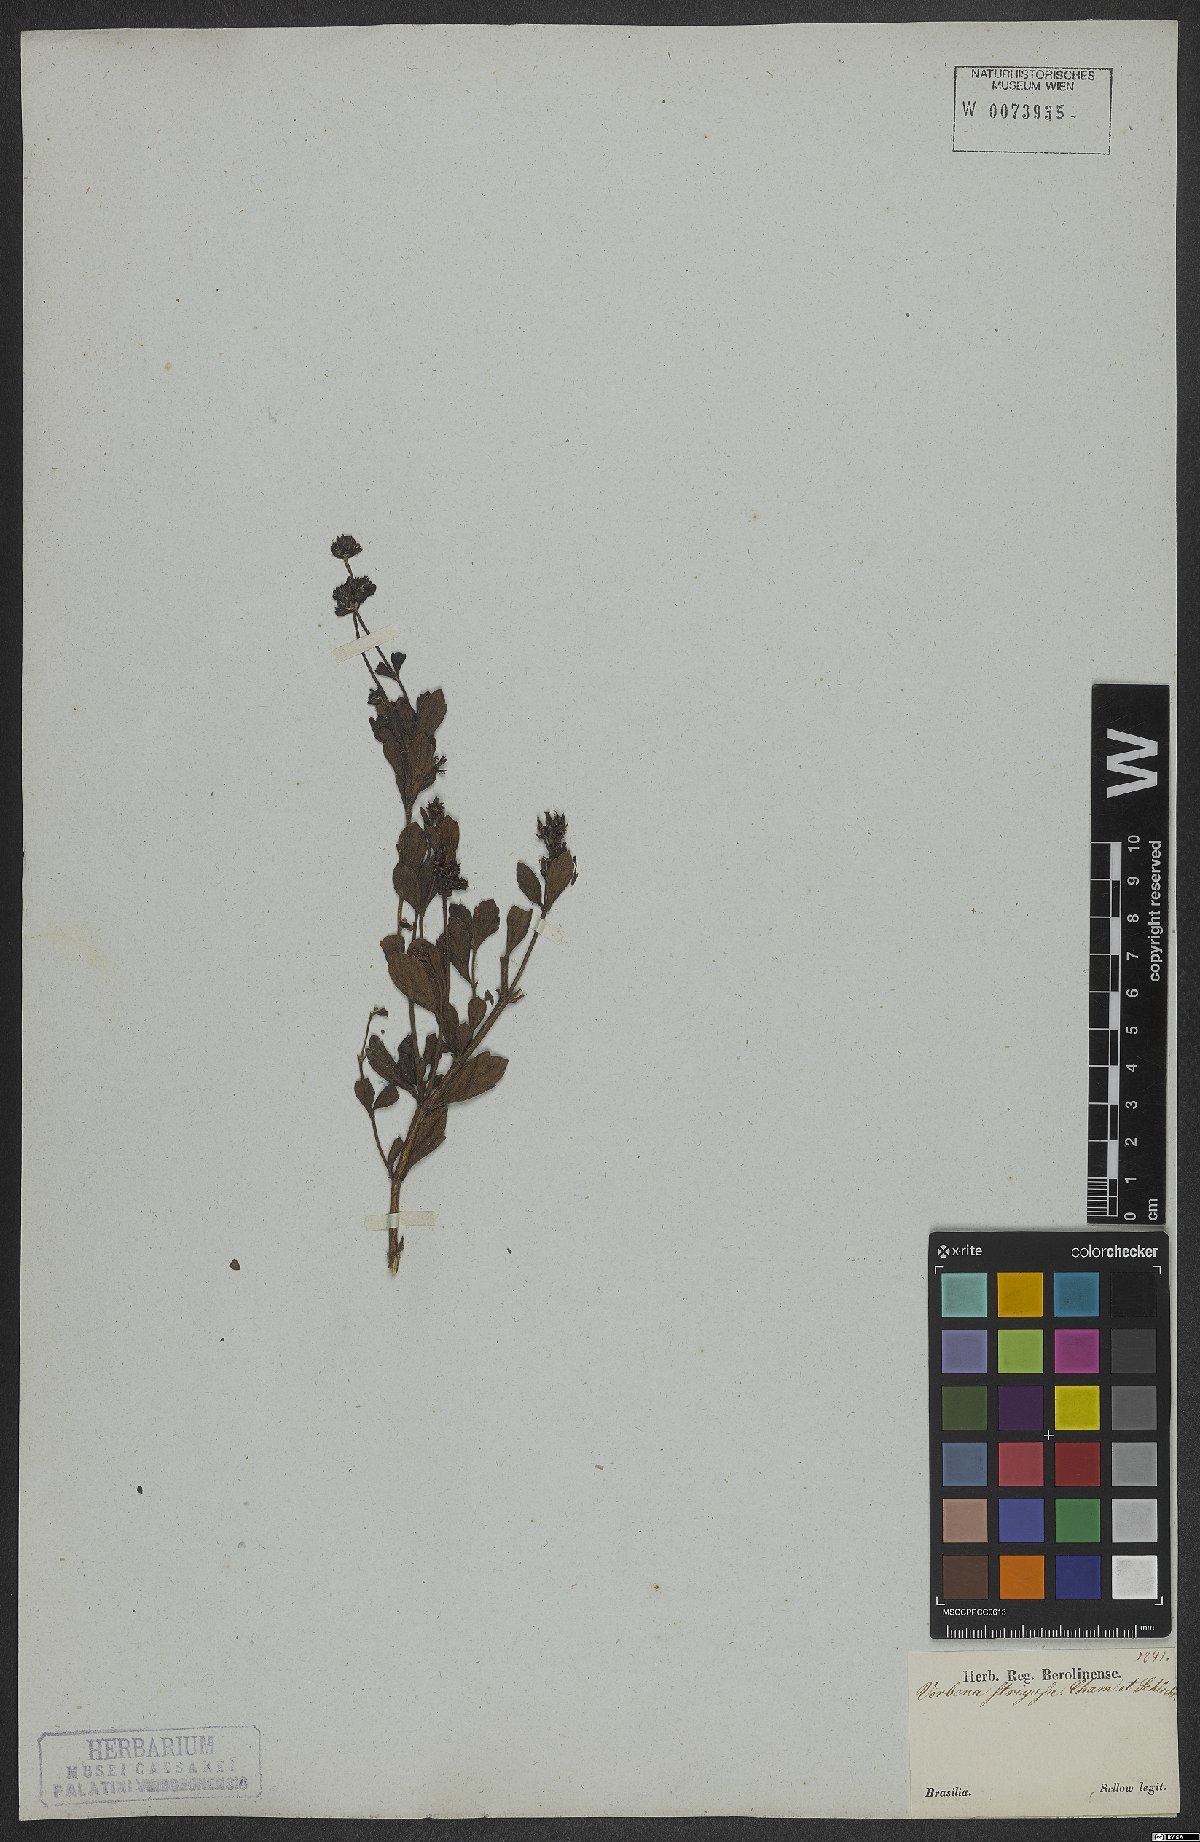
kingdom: Plantae
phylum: Tracheophyta
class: Magnoliopsida
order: Lamiales
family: Verbenaceae
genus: Verbena
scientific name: Verbena strigosa
